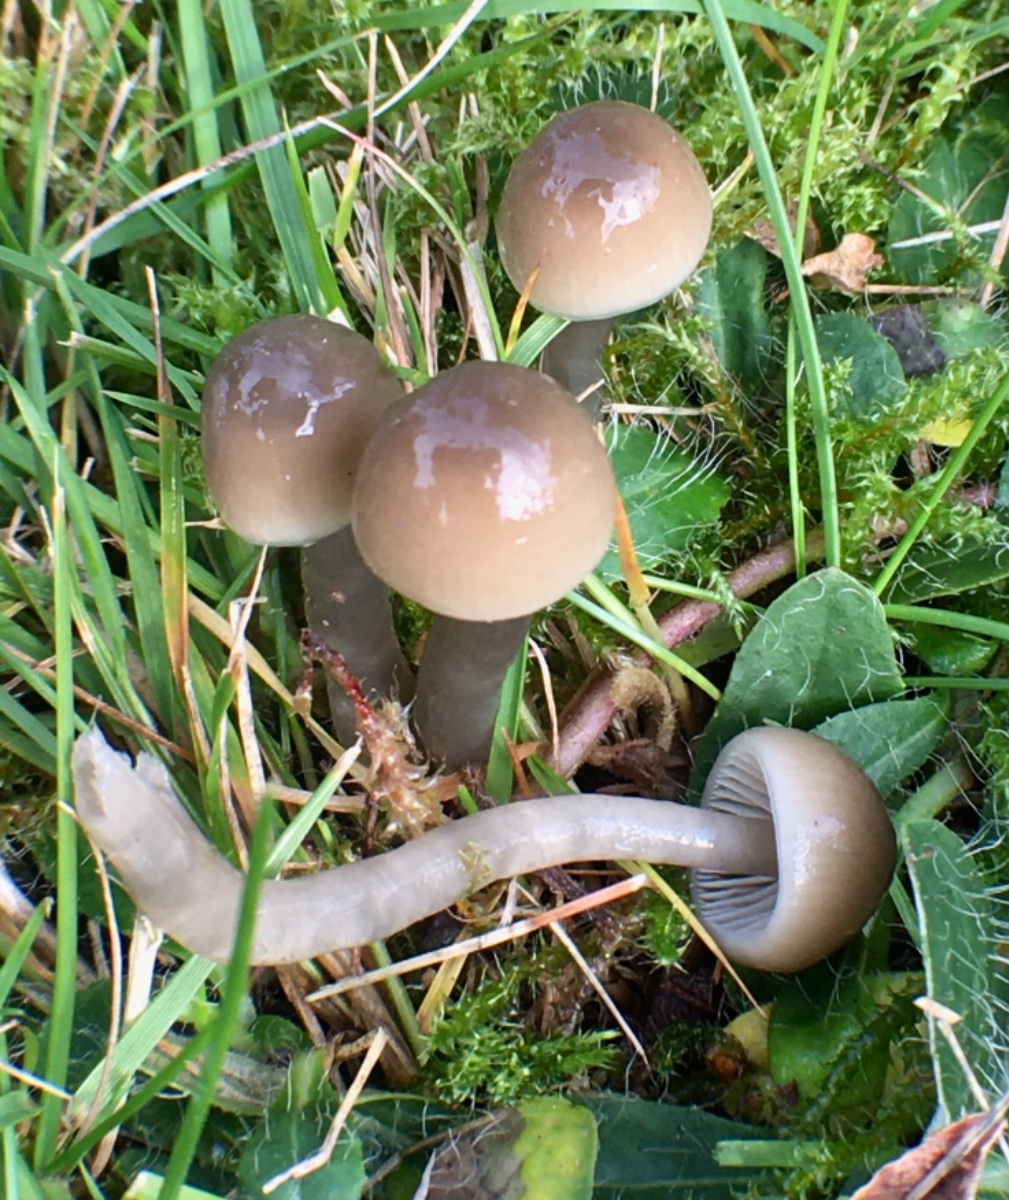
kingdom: Fungi
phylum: Basidiomycota
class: Agaricomycetes
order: Agaricales
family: Hygrophoraceae
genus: Gliophorus
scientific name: Gliophorus irrigatus
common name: slimet vokshat
